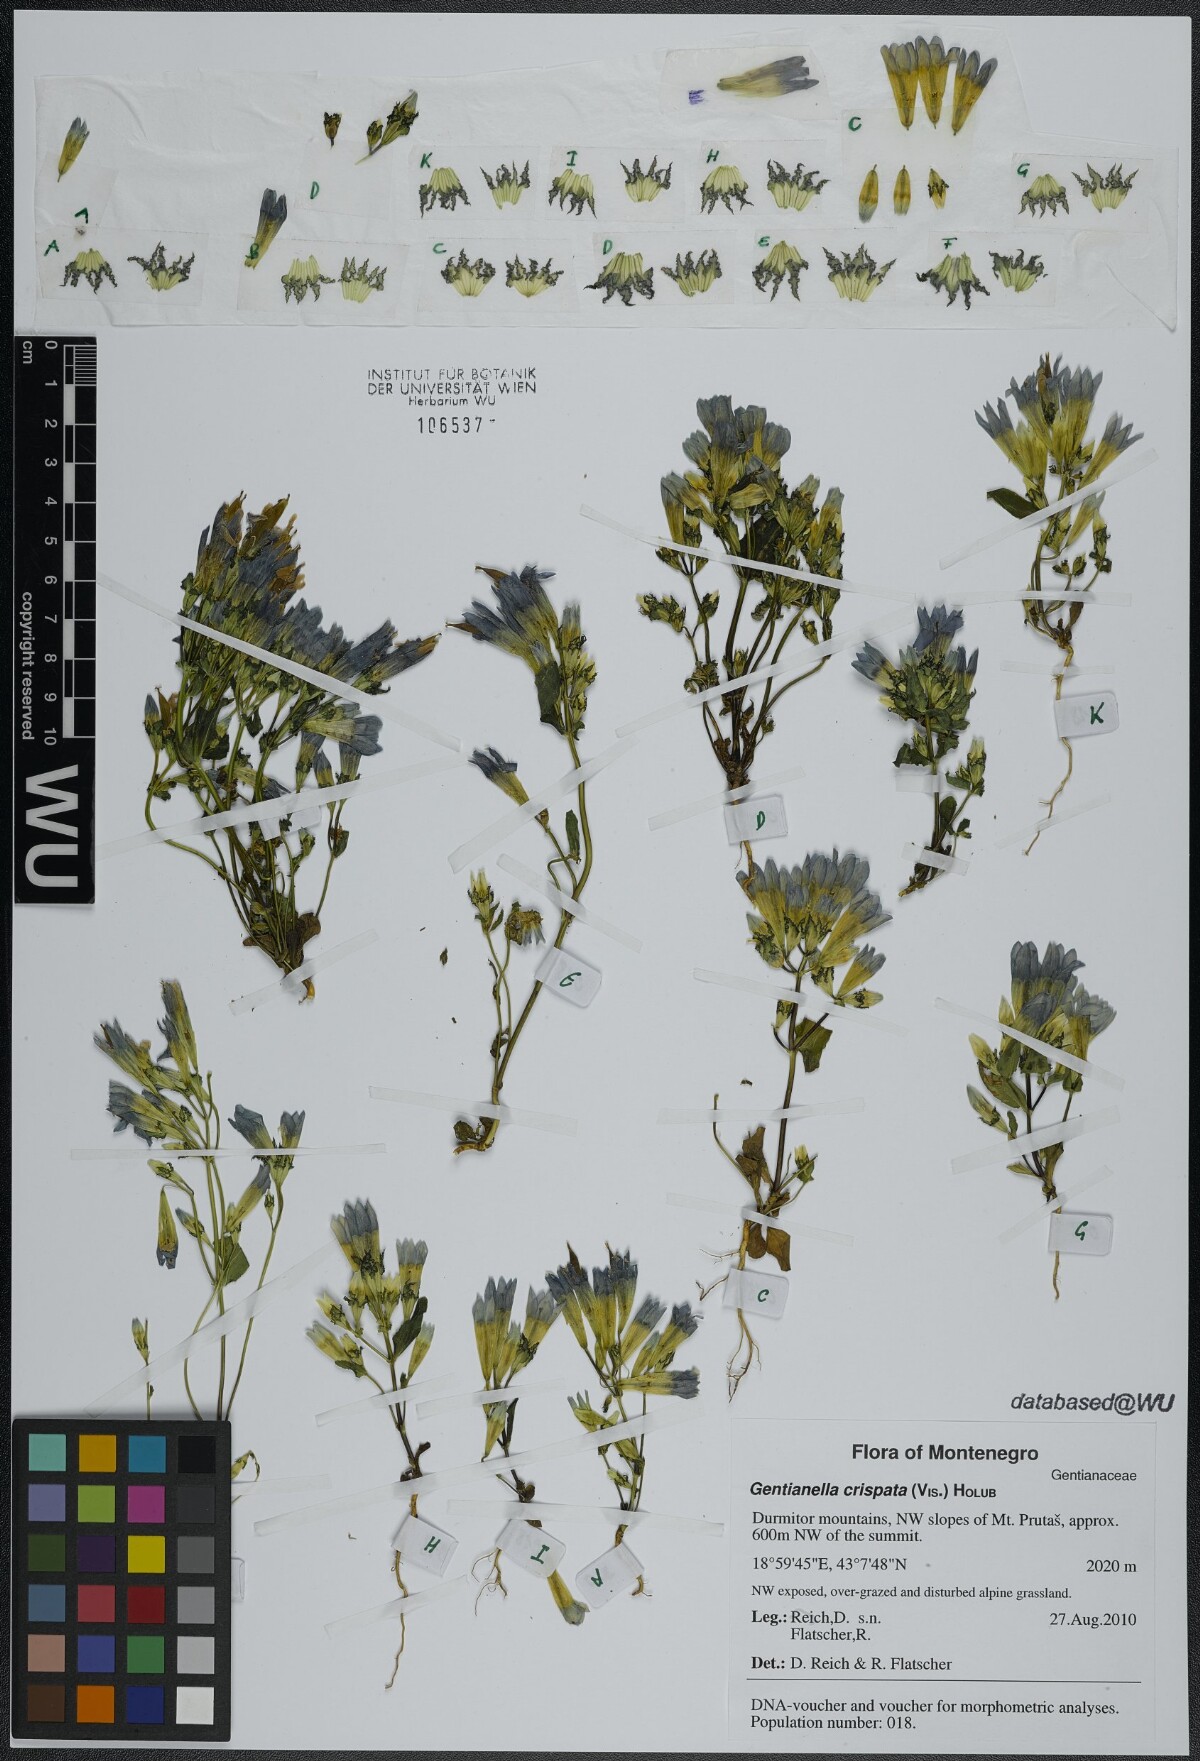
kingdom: Plantae
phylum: Tracheophyta
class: Magnoliopsida
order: Gentianales
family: Gentianaceae
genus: Gentianella
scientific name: Gentianella crispata
